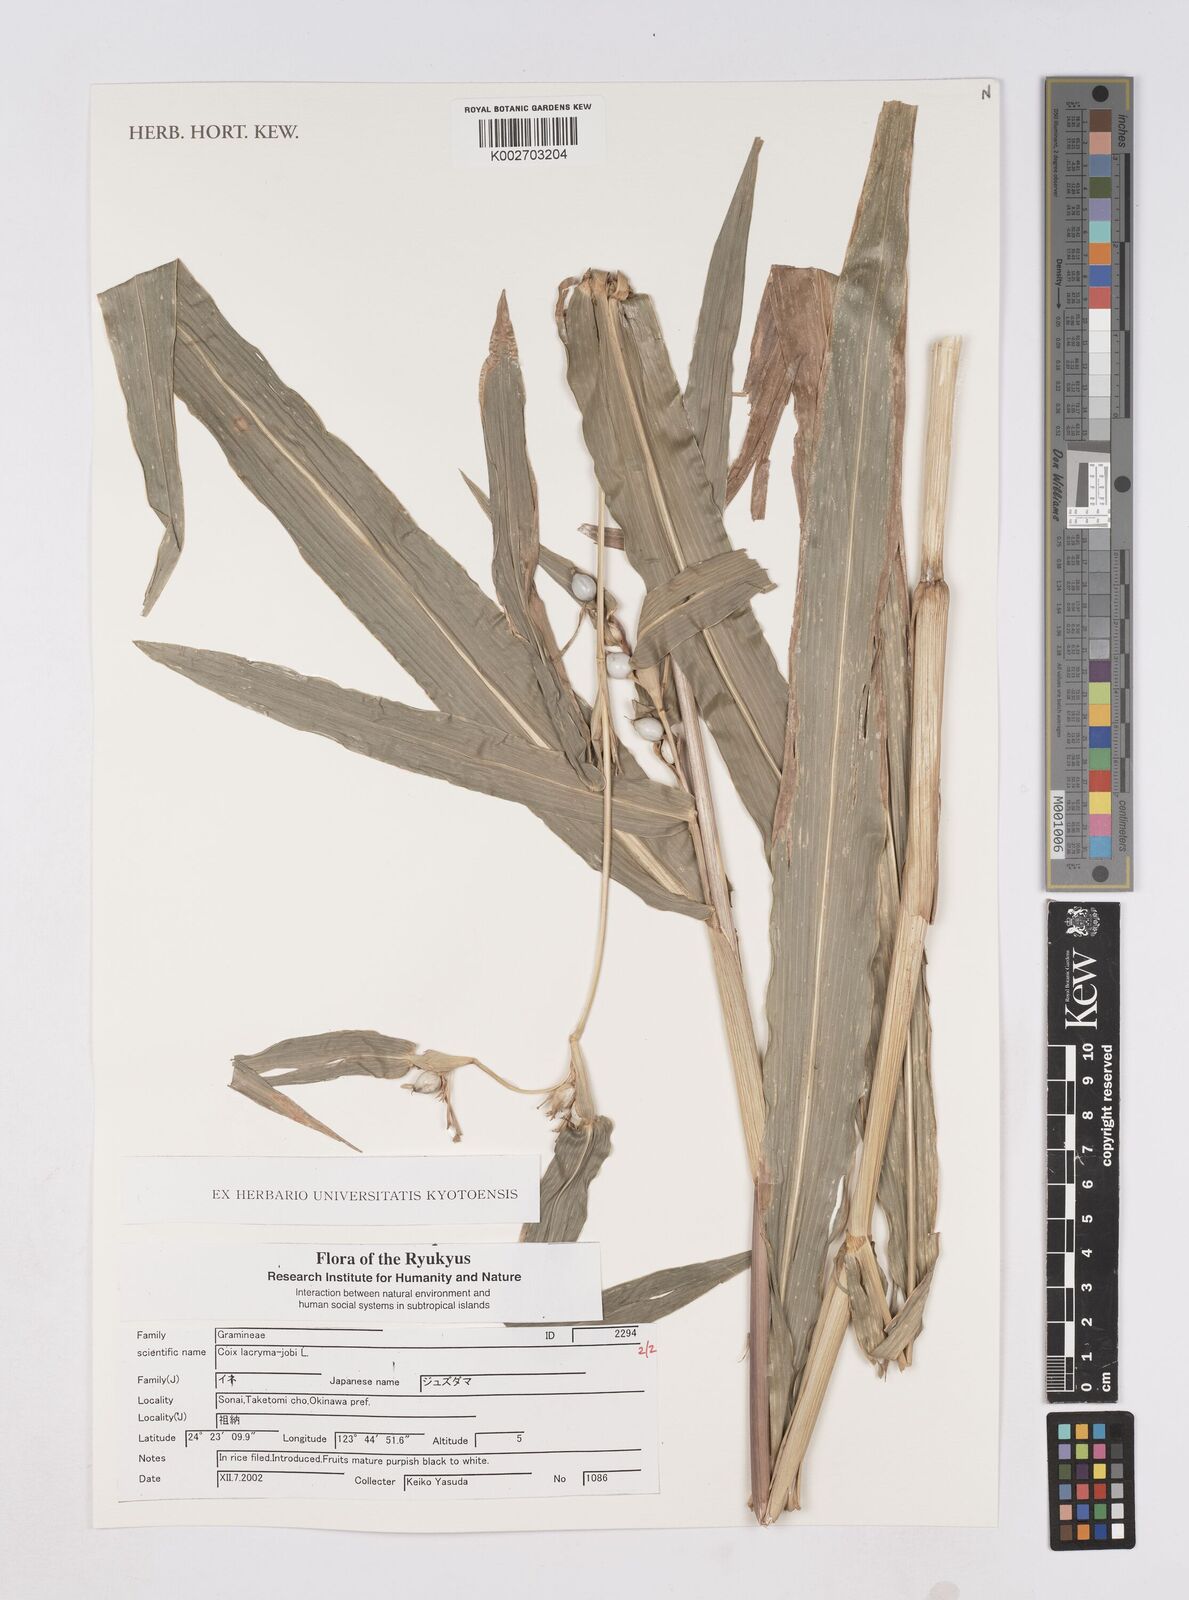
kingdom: Plantae
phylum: Tracheophyta
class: Liliopsida
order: Poales
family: Poaceae
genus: Coix
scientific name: Coix lacryma-jobi
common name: Job's tears
